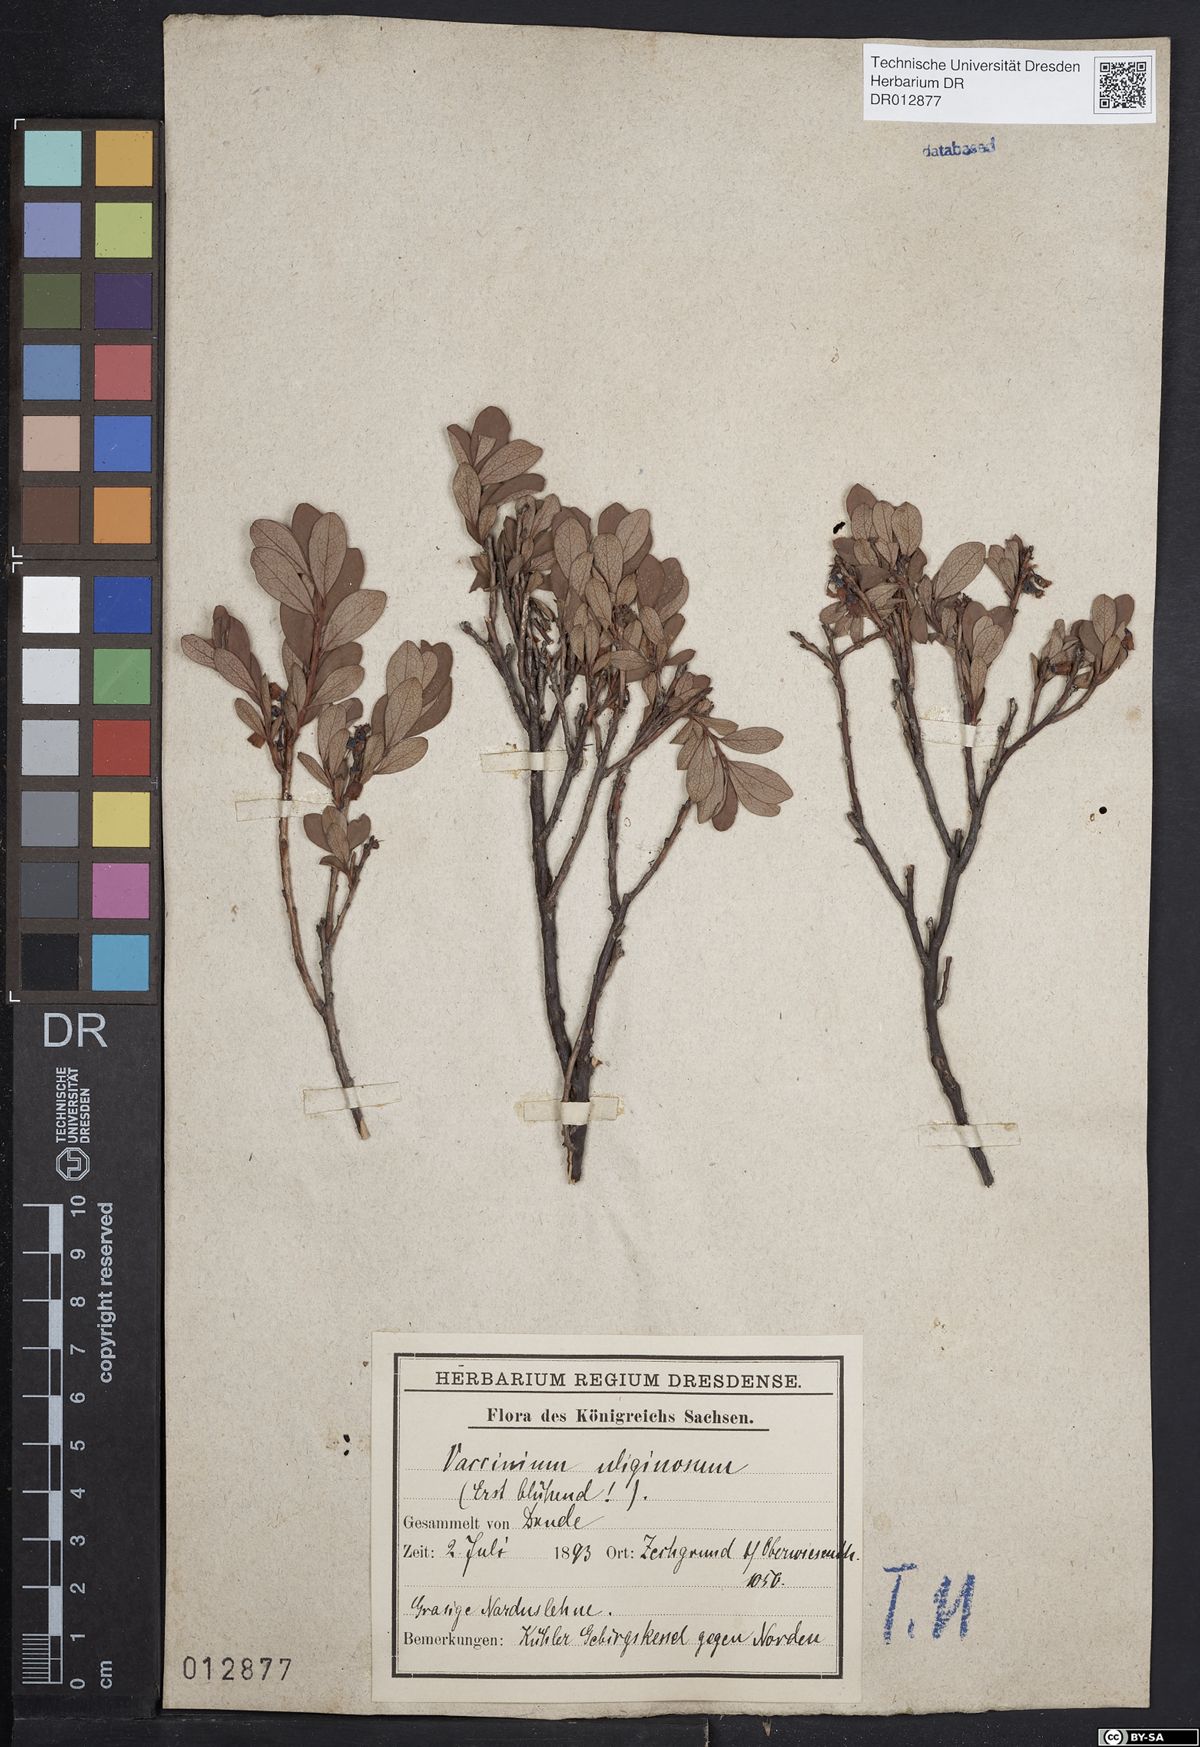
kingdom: Plantae
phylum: Tracheophyta
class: Magnoliopsida
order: Ericales
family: Ericaceae
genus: Vaccinium
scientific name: Vaccinium uliginosum
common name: Bog bilberry
